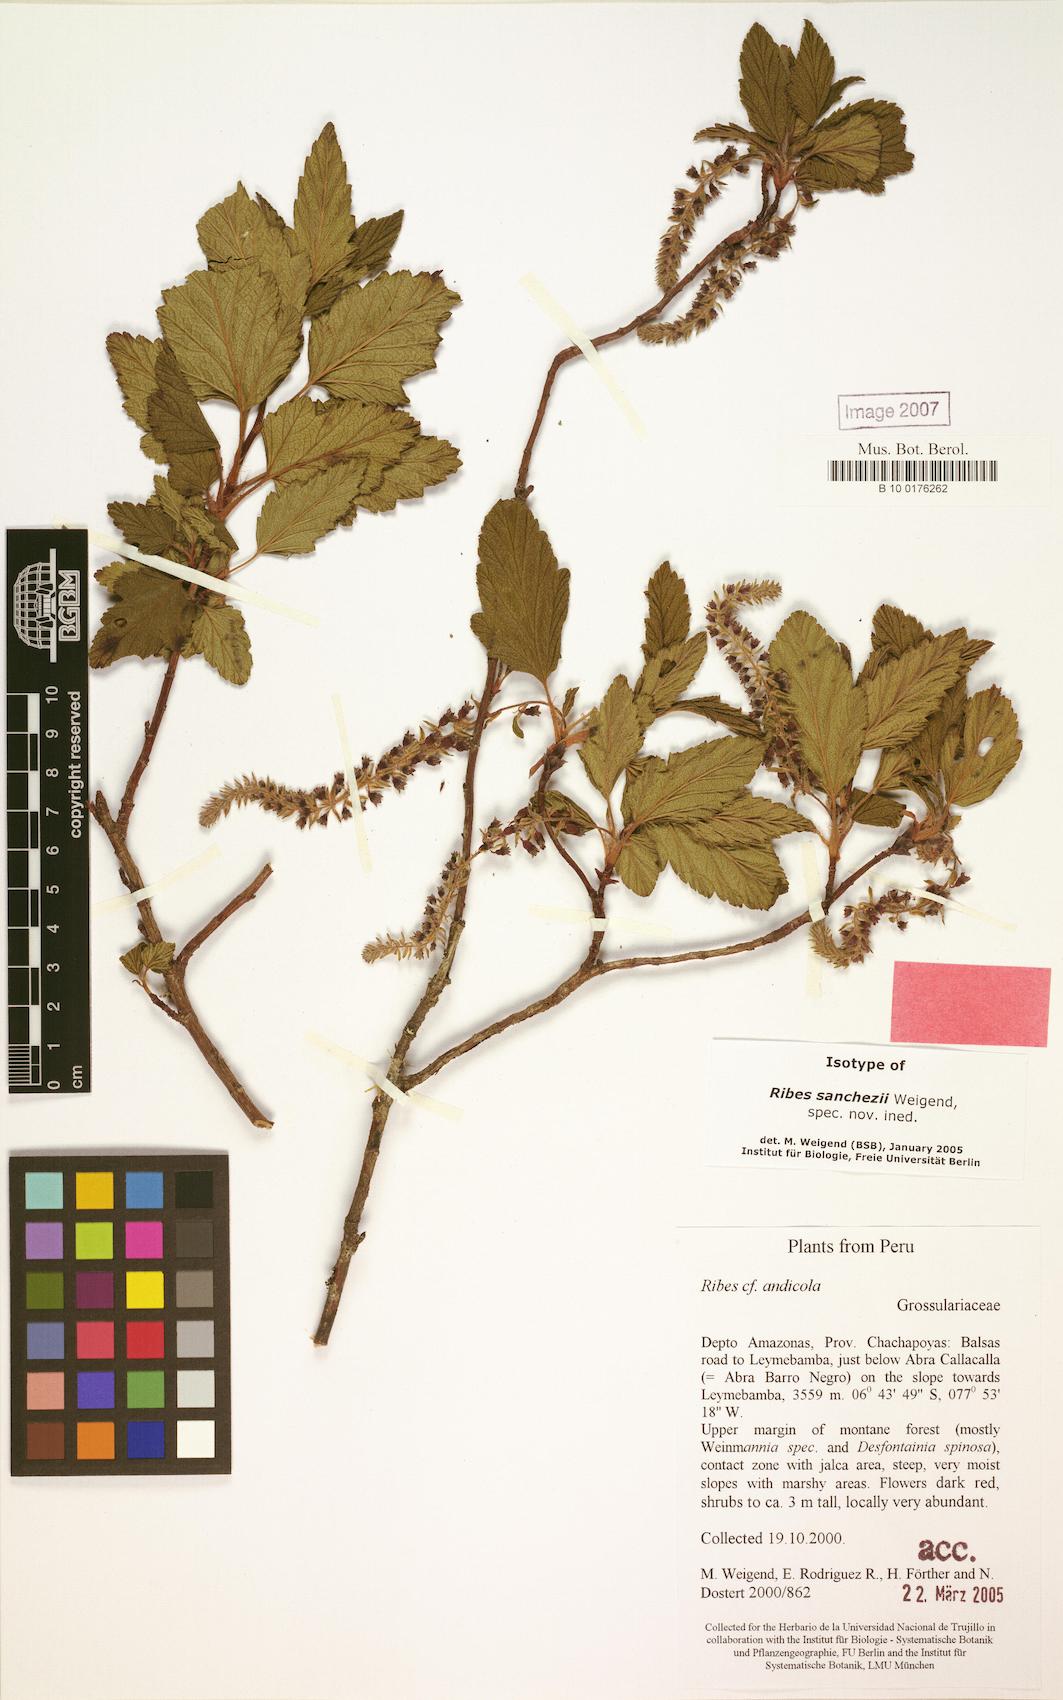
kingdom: Plantae
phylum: Tracheophyta
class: Magnoliopsida
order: Saxifragales
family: Grossulariaceae
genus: Ribes
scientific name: Ribes sanchezii
